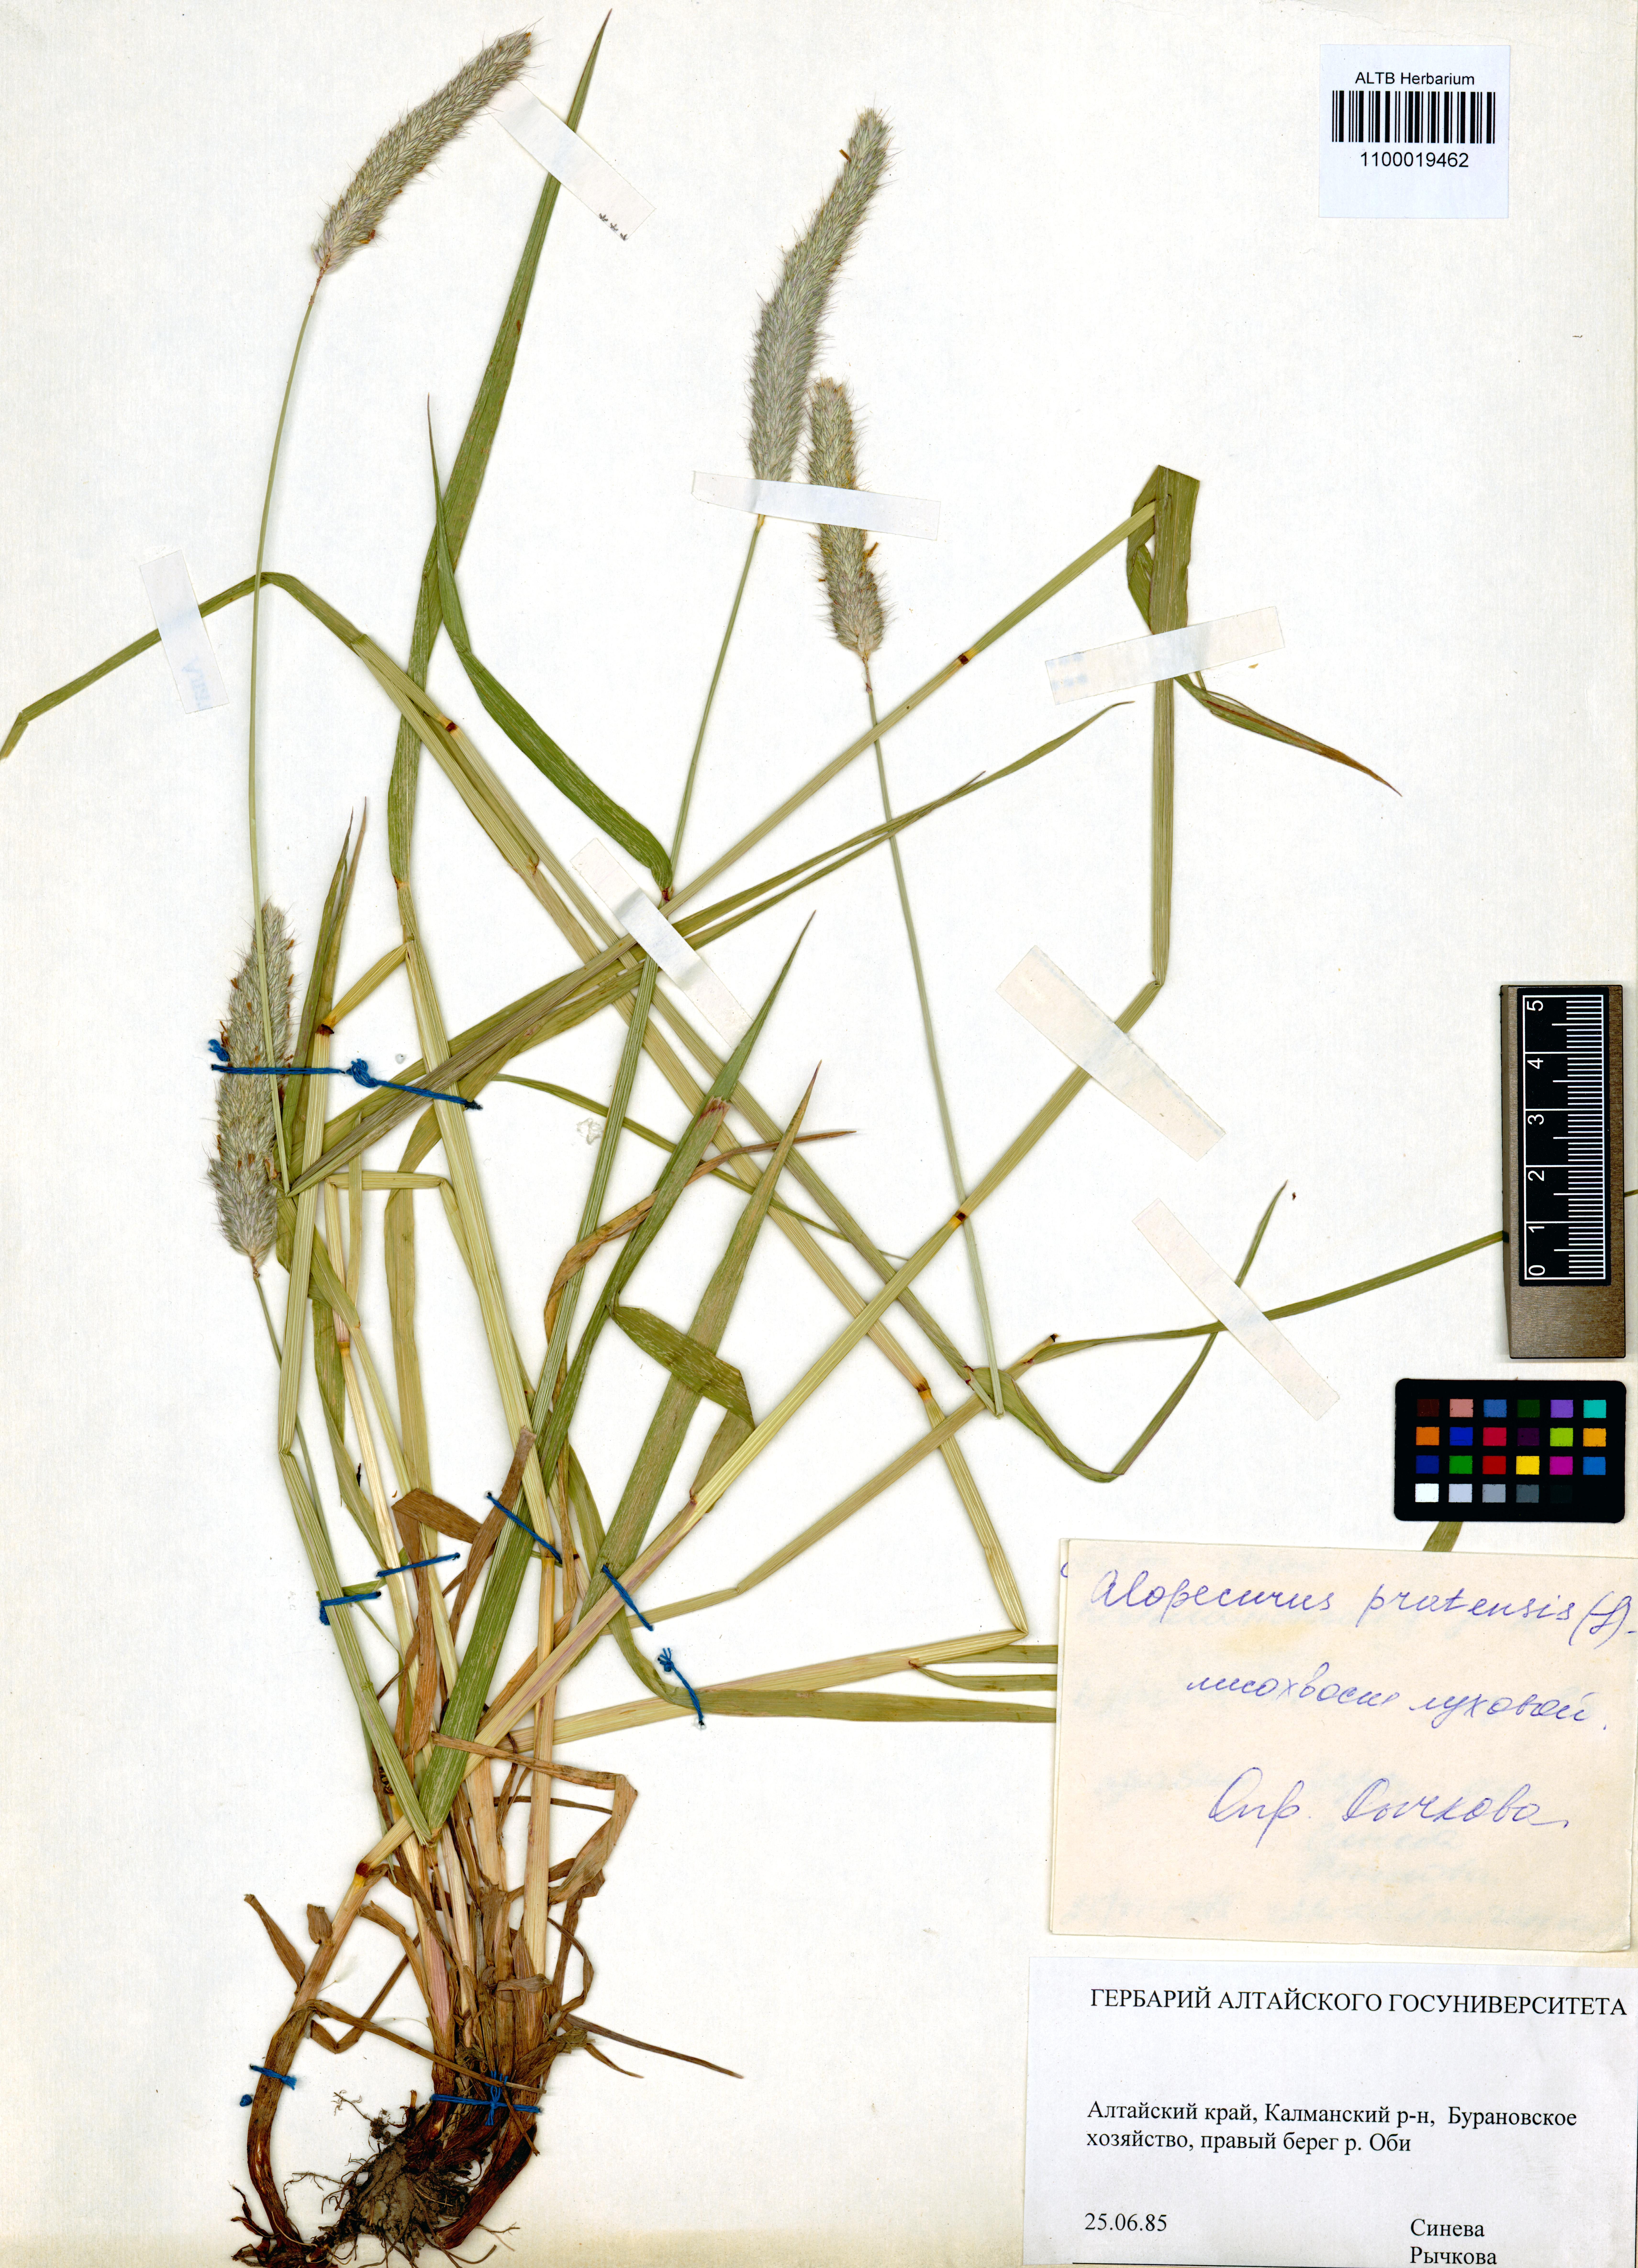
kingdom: Plantae
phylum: Tracheophyta
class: Liliopsida
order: Poales
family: Poaceae
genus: Alopecurus
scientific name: Alopecurus pratensis
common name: Meadow foxtail
